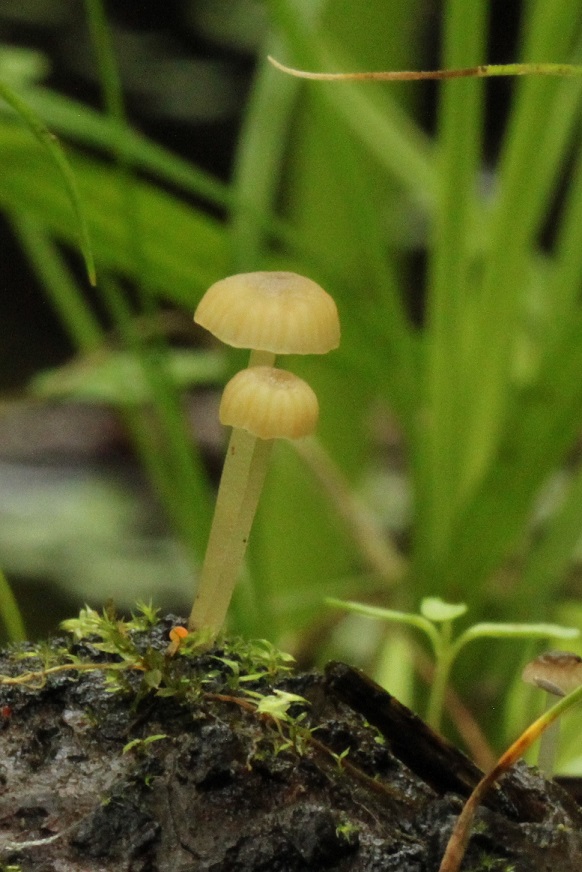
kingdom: Fungi
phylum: Basidiomycota
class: Agaricomycetes
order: Agaricales
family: Porotheleaceae
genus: Phloeomana
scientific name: Phloeomana speirea
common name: kvist-huesvamp
